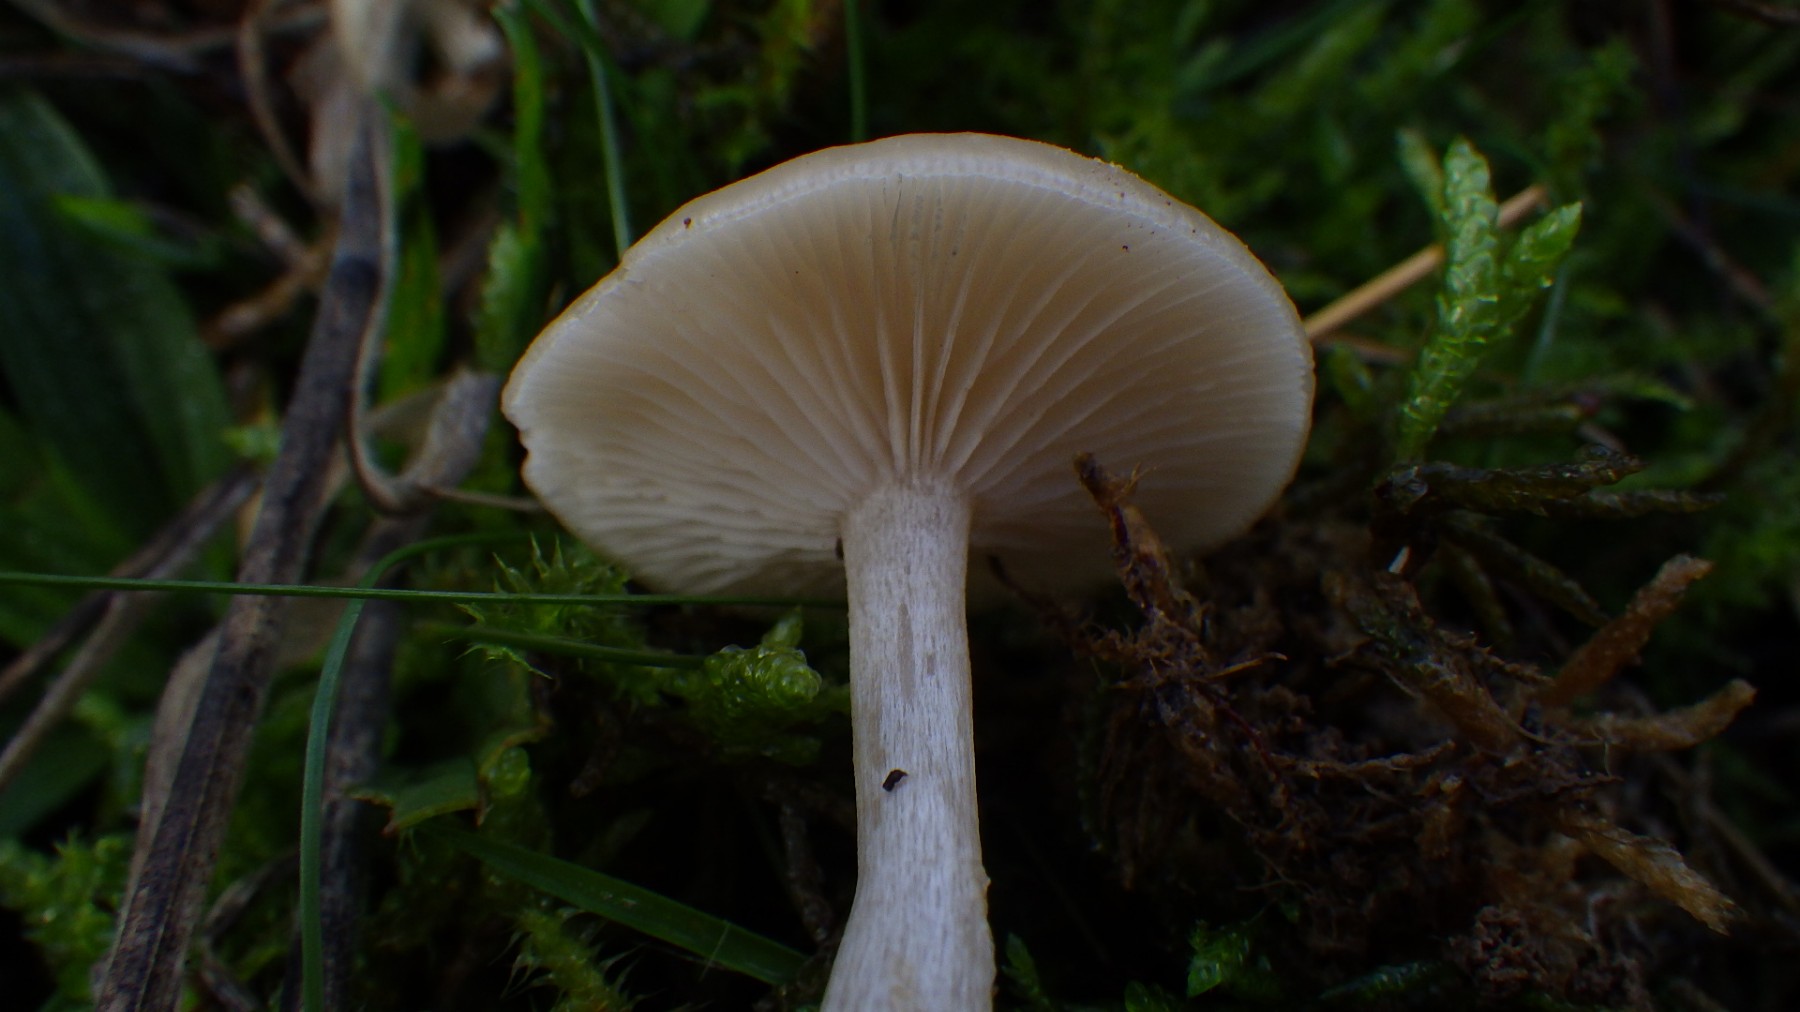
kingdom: Fungi
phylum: Basidiomycota
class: Agaricomycetes
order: Agaricales
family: Tricholomataceae
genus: Clitocybe
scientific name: Clitocybe fragrans
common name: vellugtende tragthat
